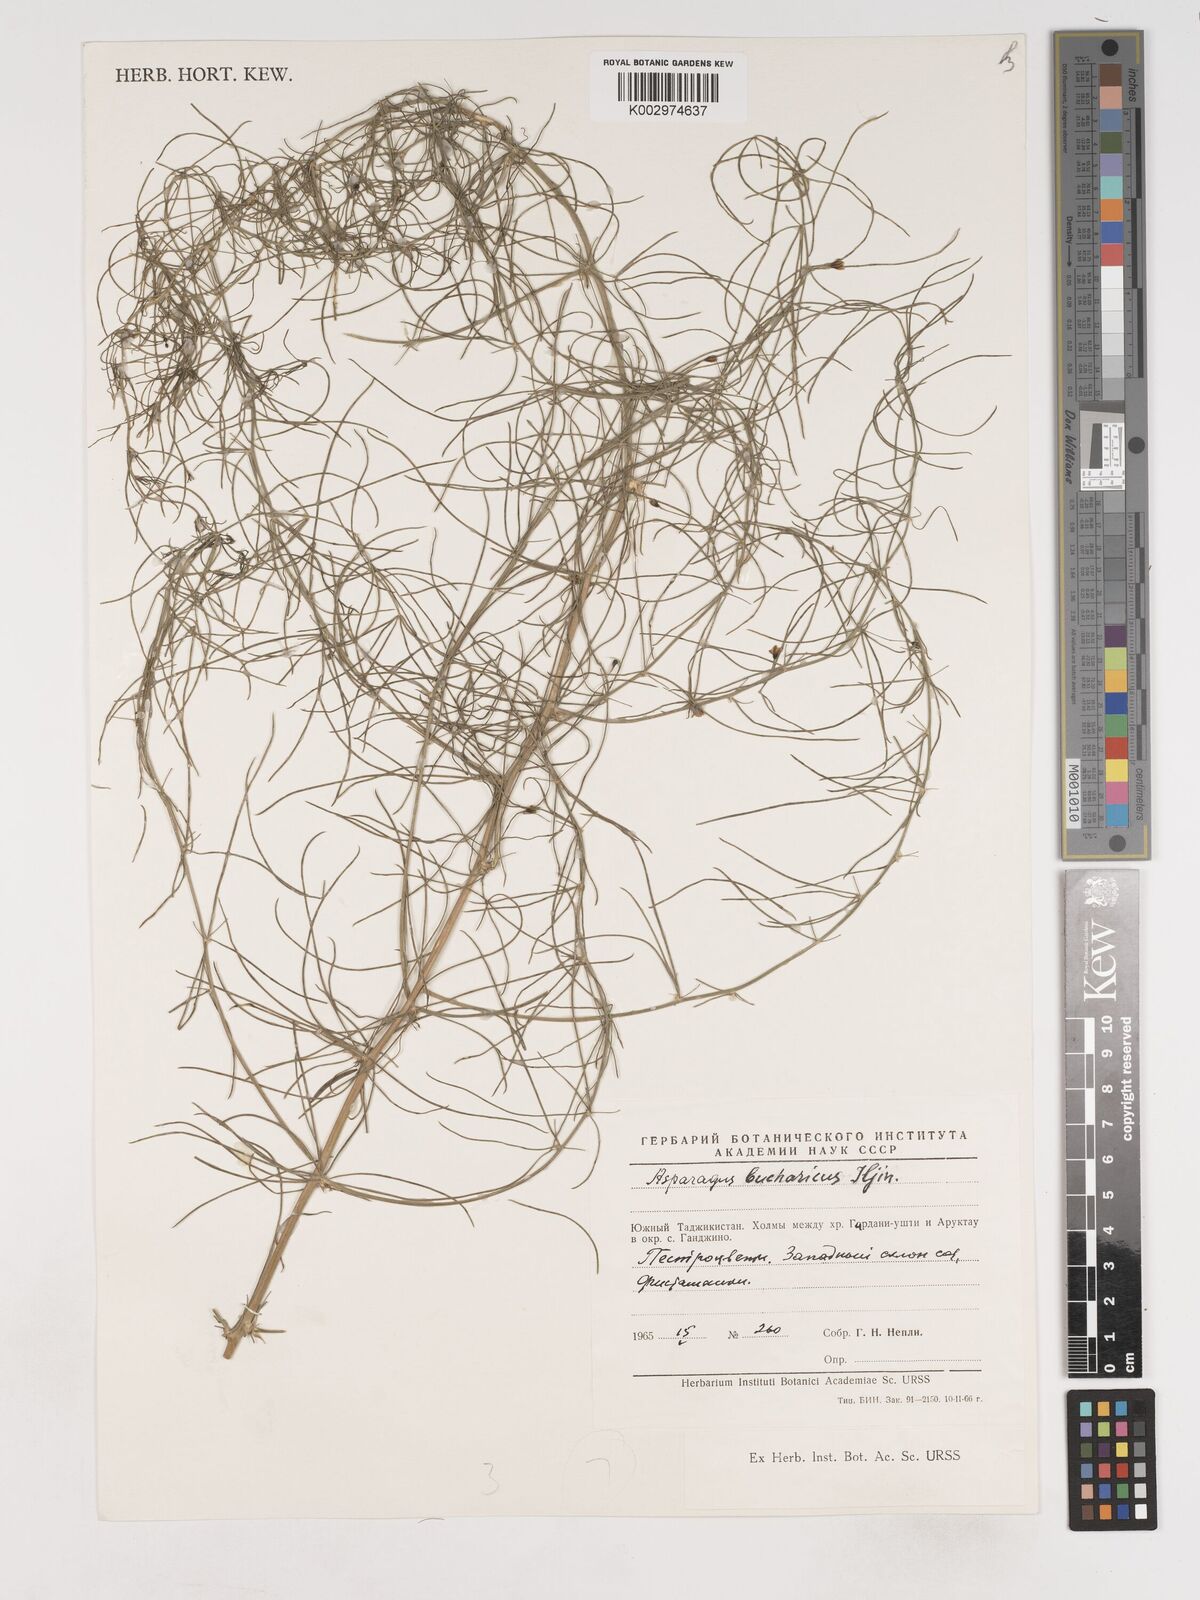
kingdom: Plantae
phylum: Tracheophyta
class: Liliopsida
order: Asparagales
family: Asparagaceae
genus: Asparagus
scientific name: Asparagus bucharicus
